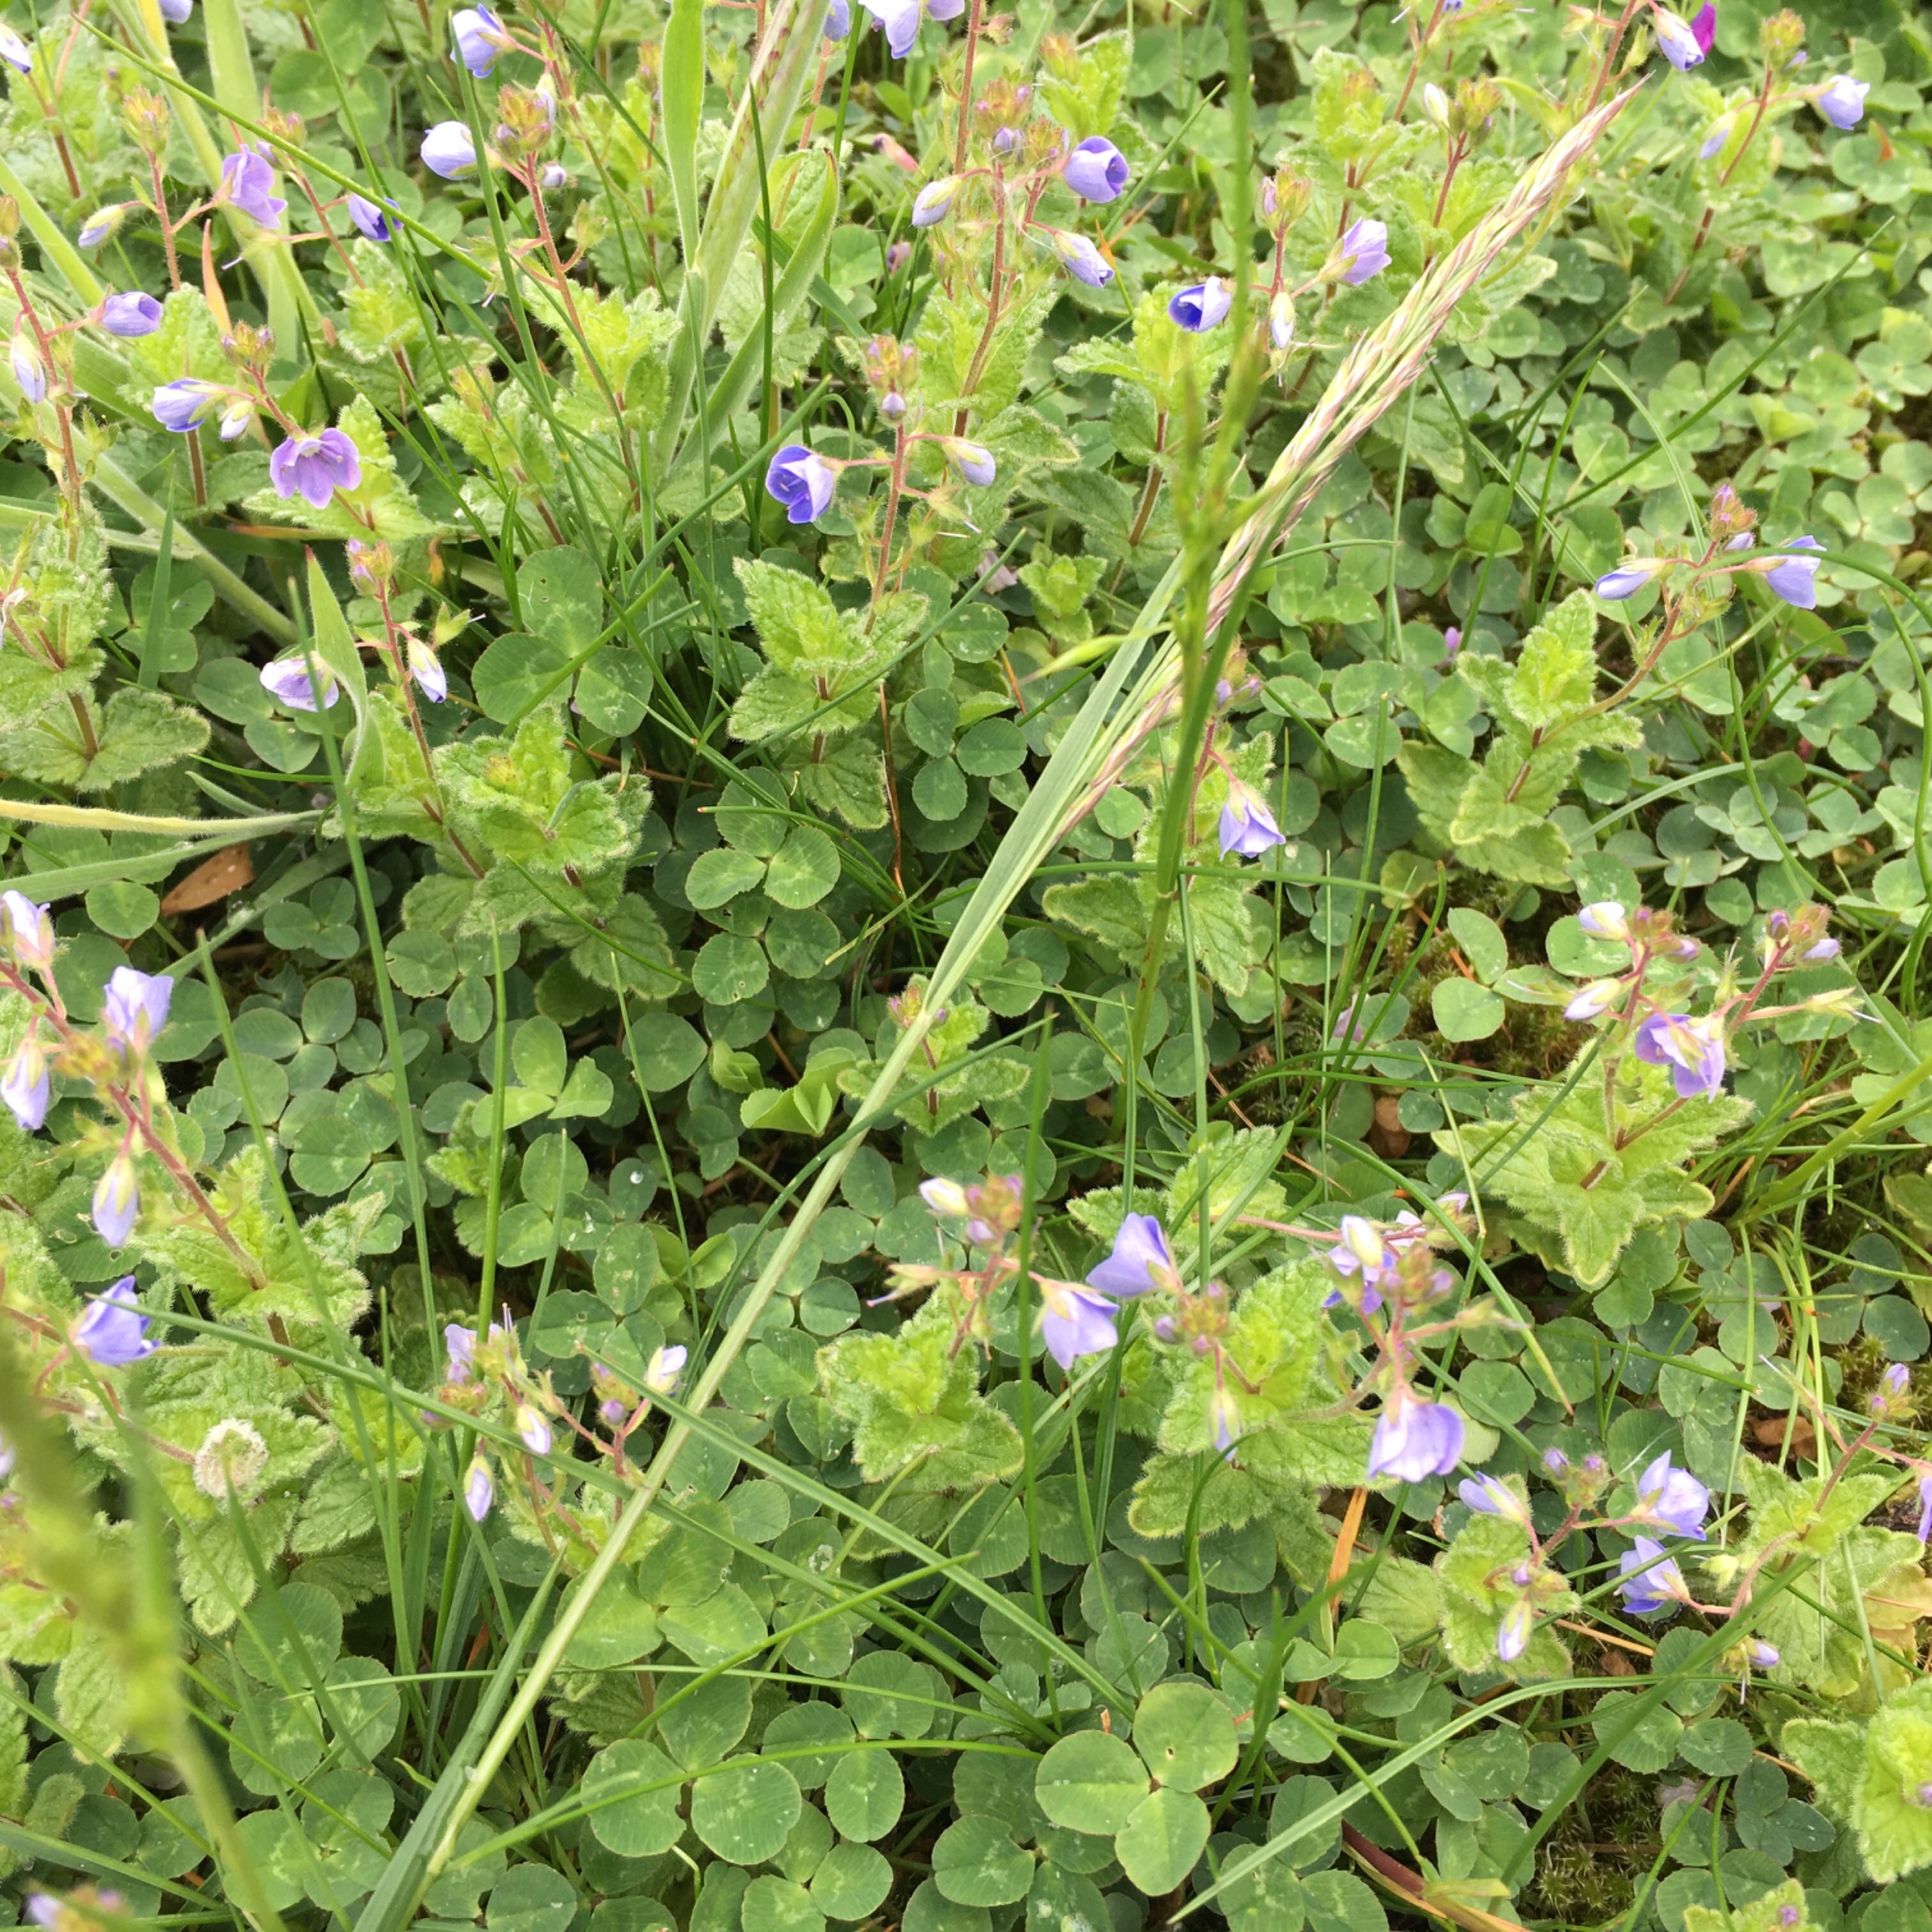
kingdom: Plantae
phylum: Tracheophyta
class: Magnoliopsida
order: Lamiales
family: Plantaginaceae
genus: Veronica
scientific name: Veronica chamaedrys
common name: Tveskægget ærenpris
